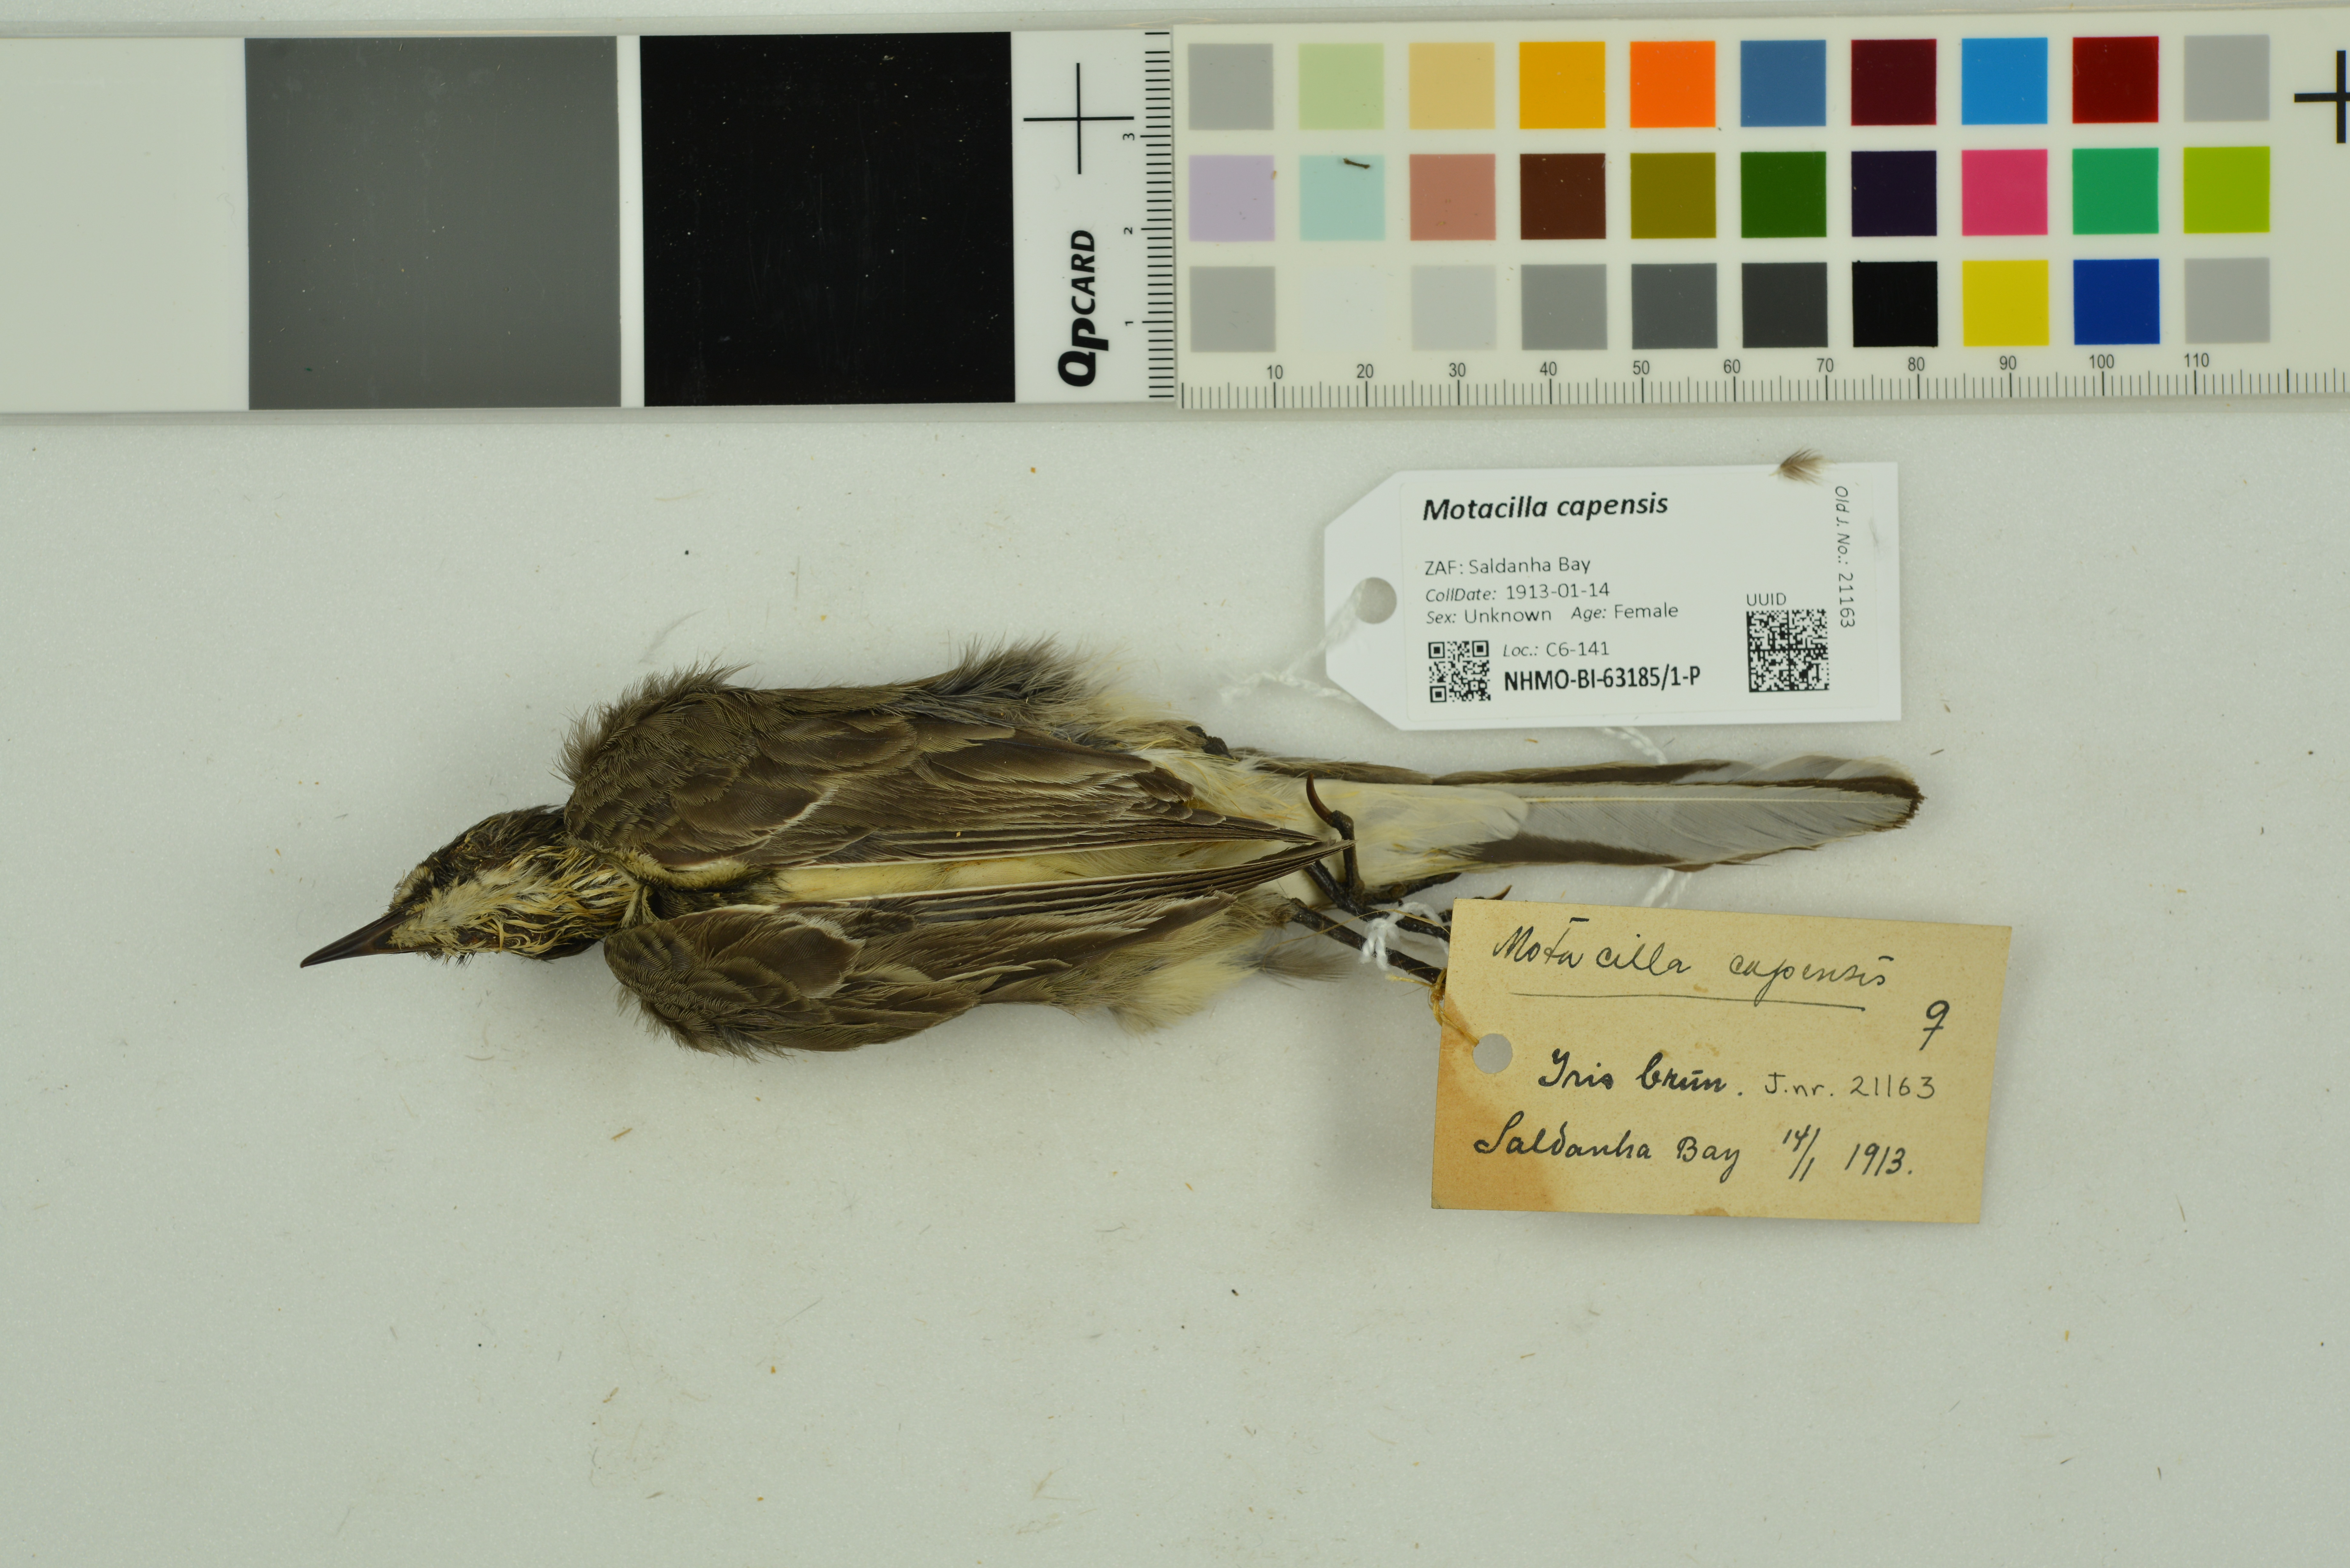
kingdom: Animalia
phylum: Chordata
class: Aves
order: Passeriformes
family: Motacillidae
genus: Motacilla
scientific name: Motacilla capensis
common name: Cape wagtail
